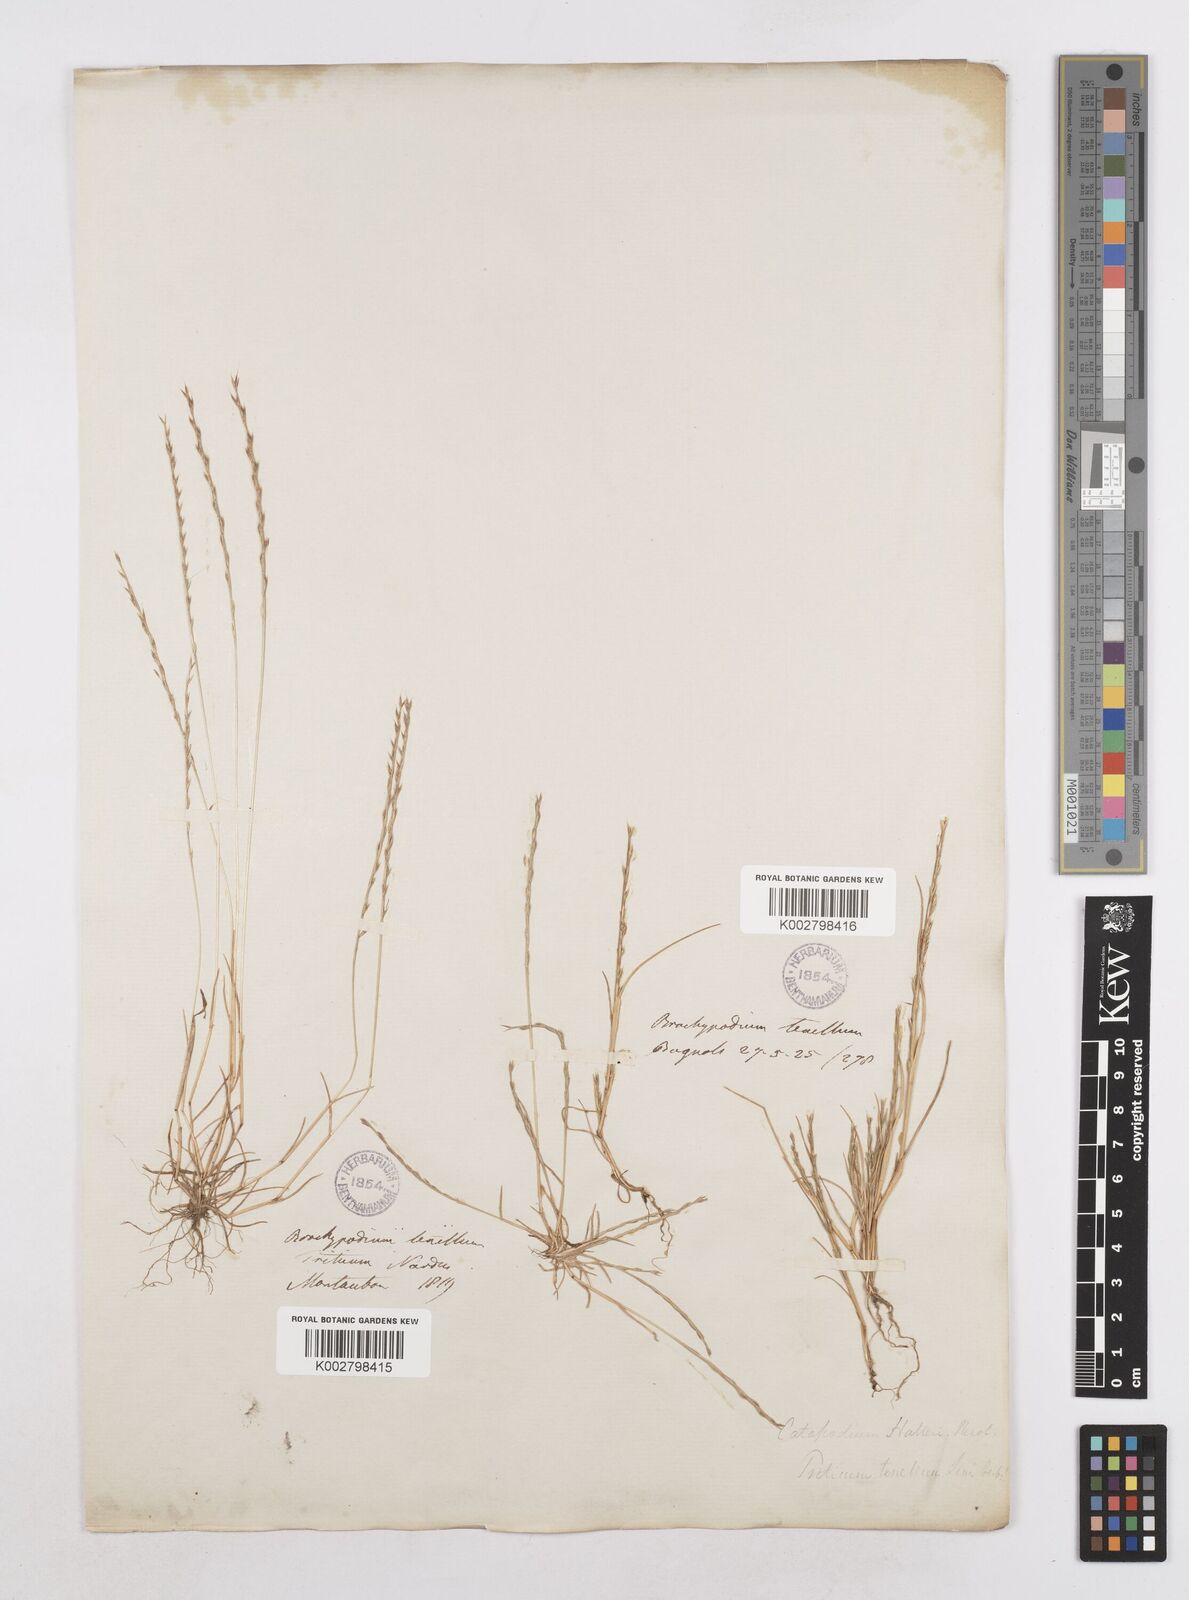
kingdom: Plantae
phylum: Tracheophyta
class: Liliopsida
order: Poales
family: Poaceae
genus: Festuca
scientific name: Festuca lachenalii
